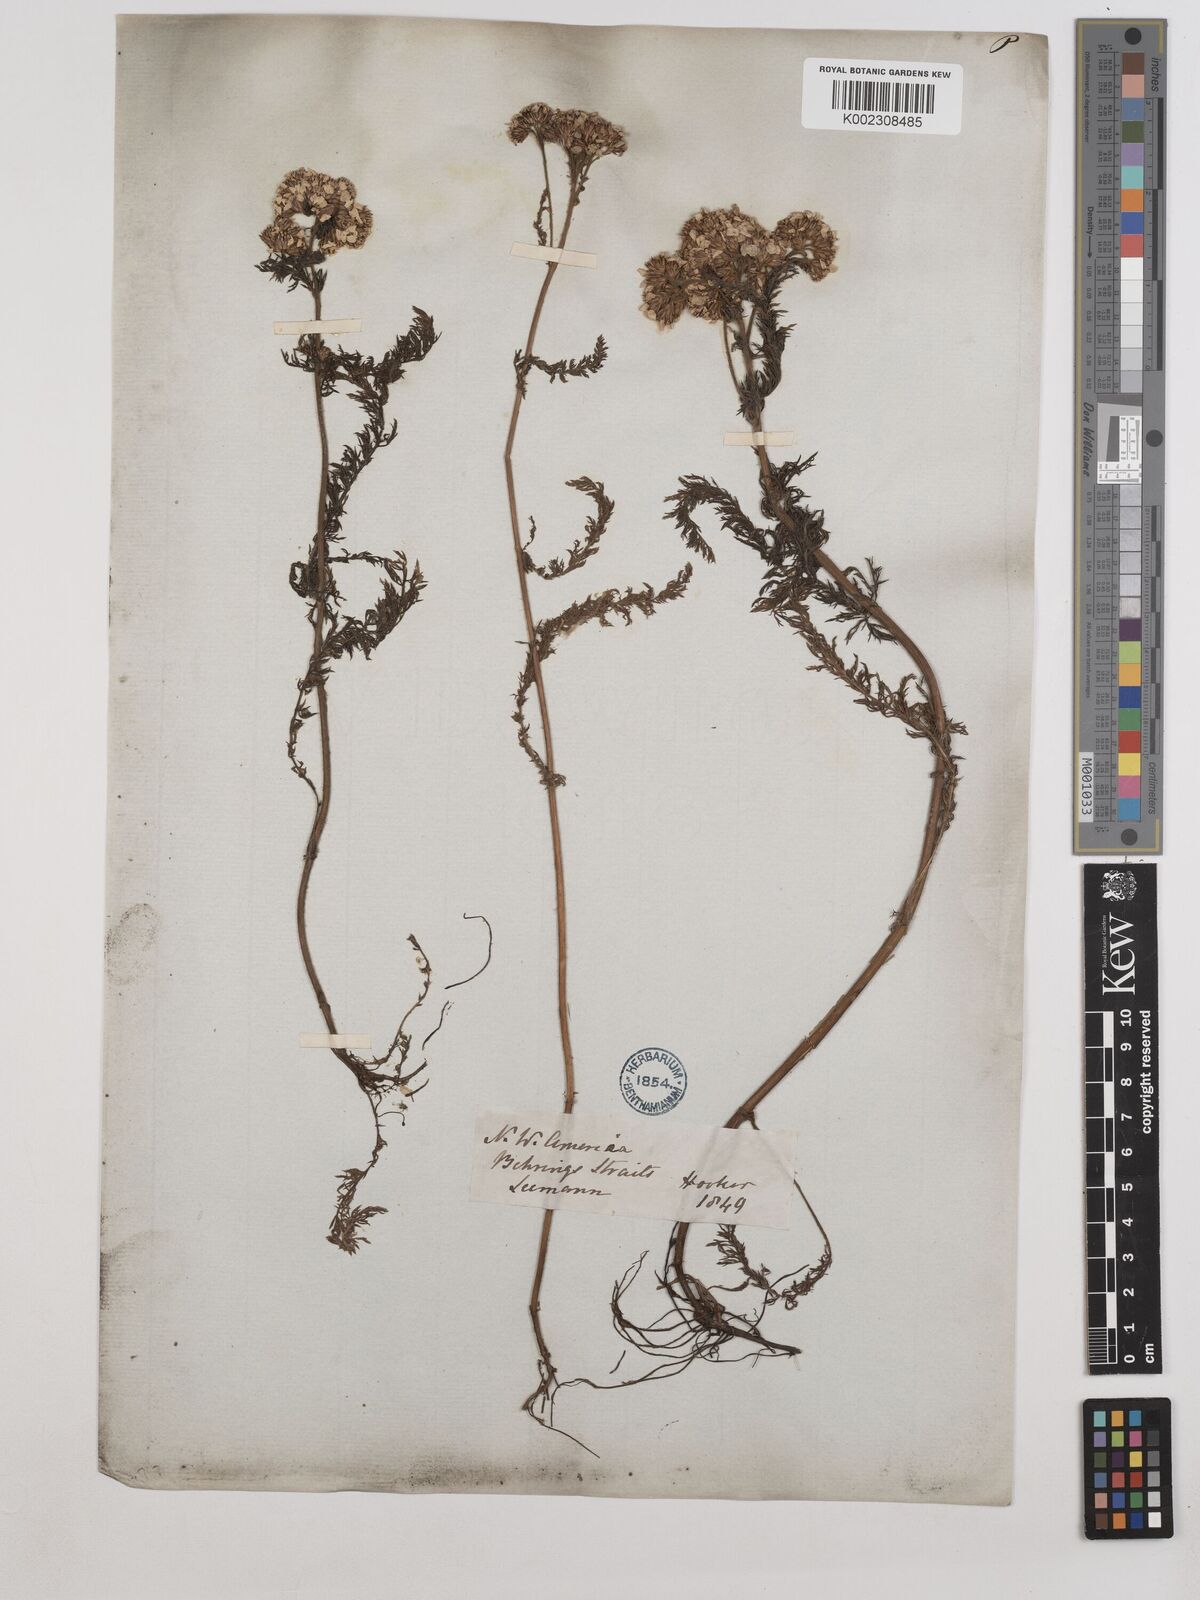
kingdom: Plantae
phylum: Tracheophyta
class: Magnoliopsida
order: Asterales
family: Asteraceae
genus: Achillea
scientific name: Achillea millefolium
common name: Yarrow
